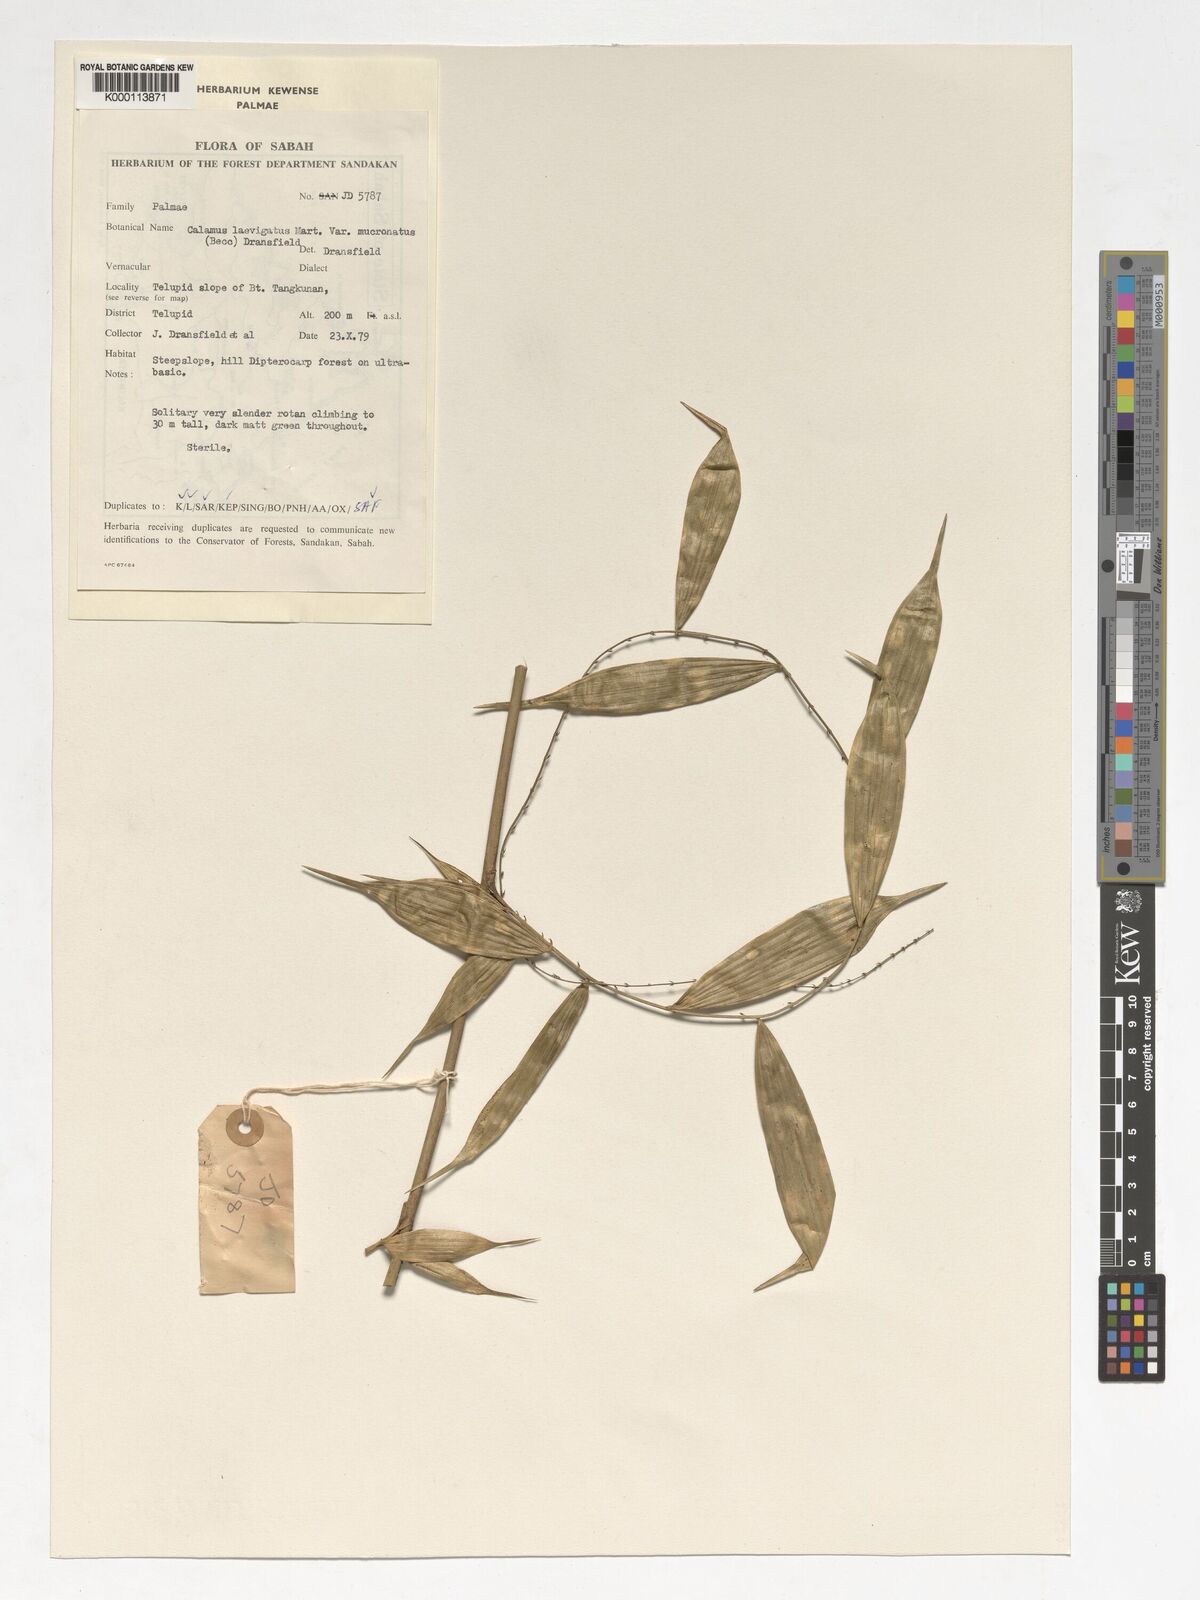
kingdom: Plantae
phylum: Tracheophyta
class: Liliopsida
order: Arecales
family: Arecaceae
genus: Calamus
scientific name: Calamus plicatus
